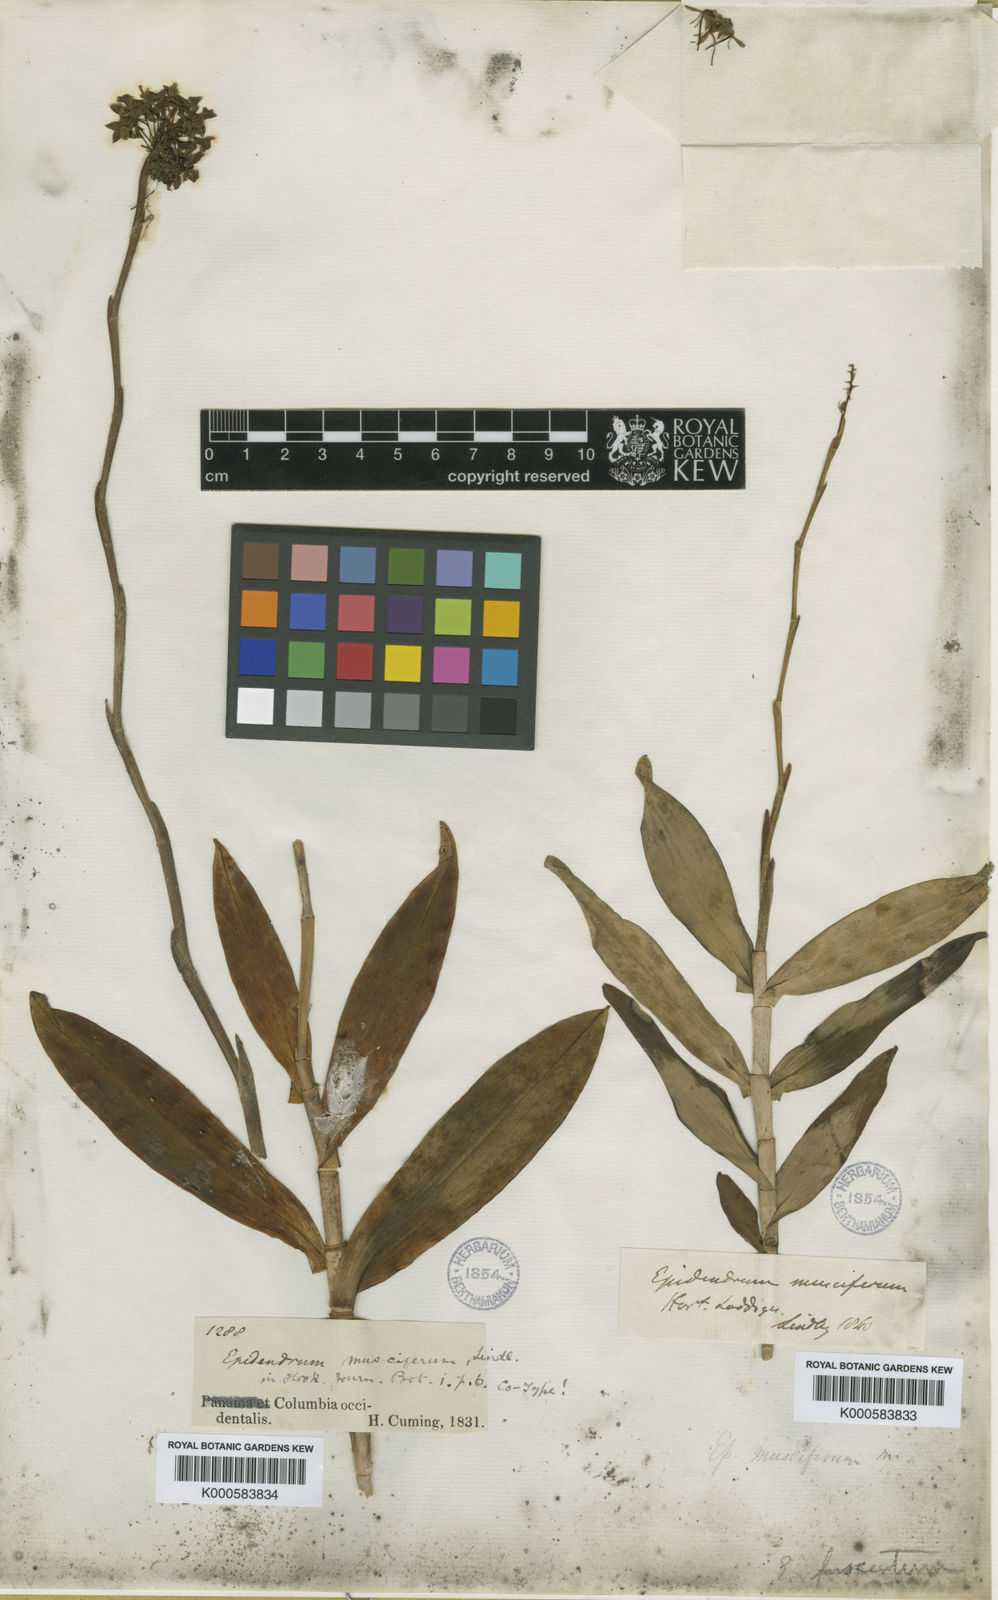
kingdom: Plantae
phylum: Tracheophyta
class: Liliopsida
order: Asparagales
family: Orchidaceae
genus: Epidendrum
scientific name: Epidendrum anceps
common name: Brown-flower butterfly orchid
